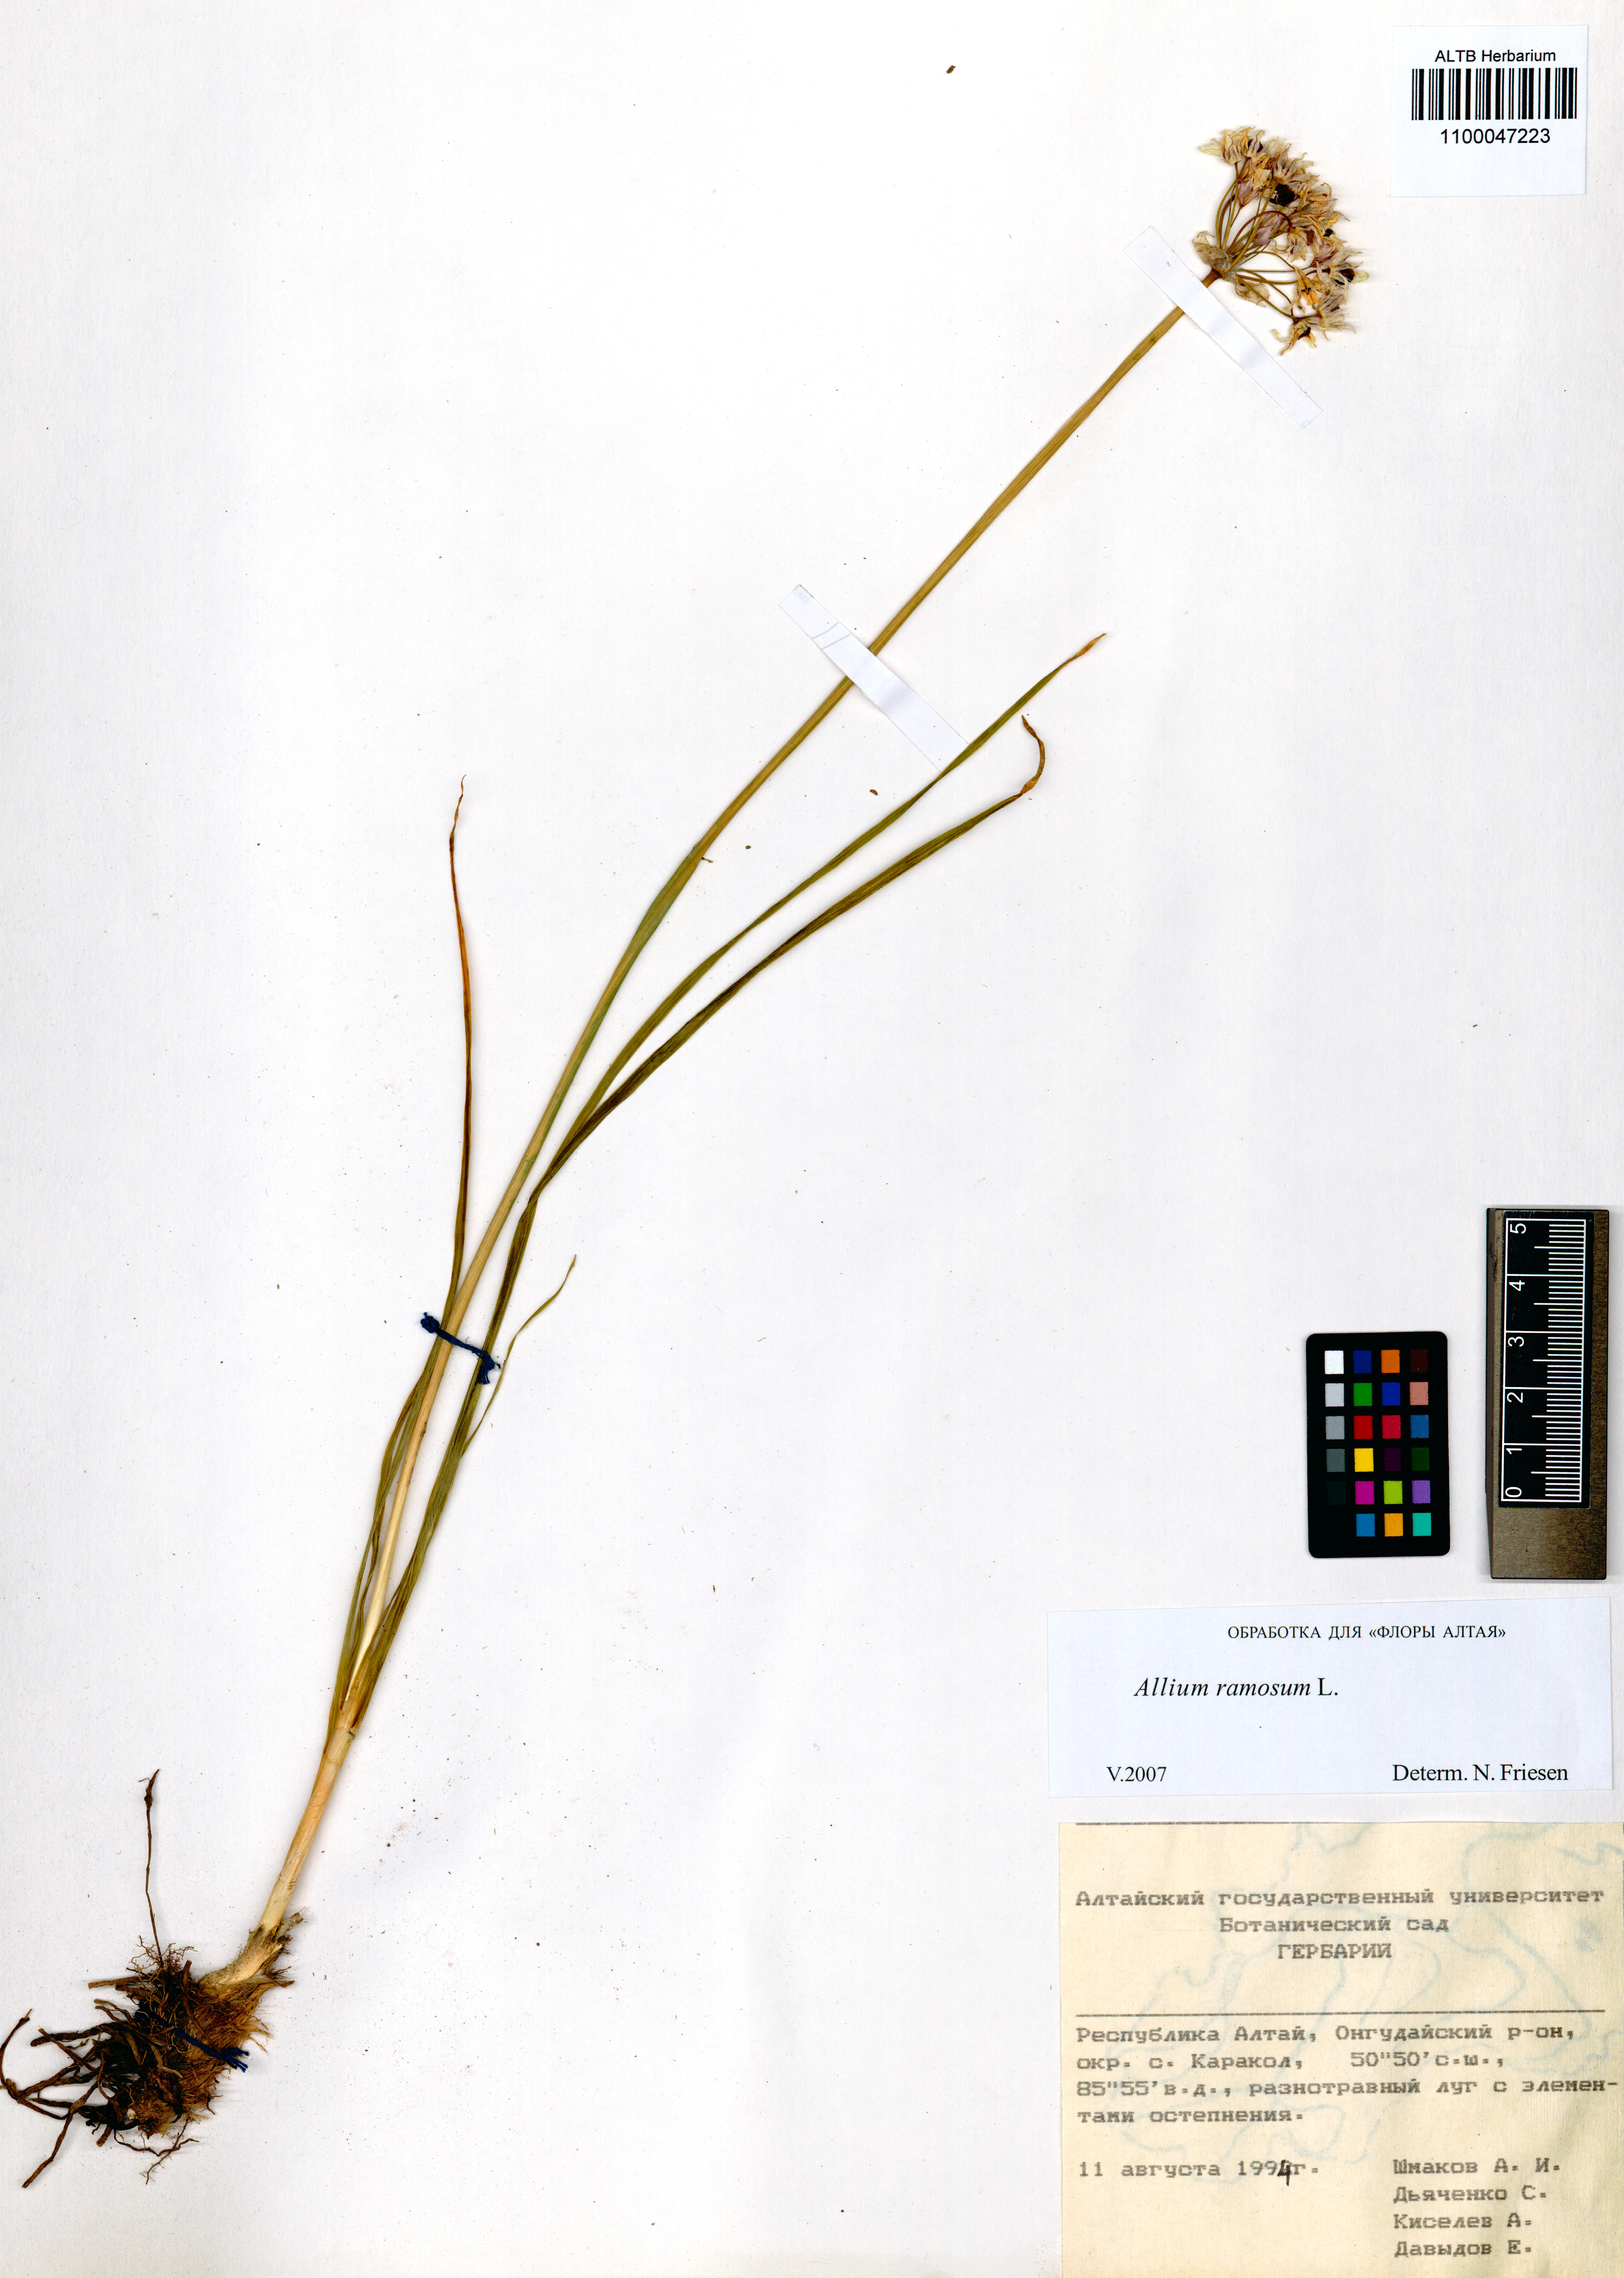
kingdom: Plantae
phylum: Tracheophyta
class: Liliopsida
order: Asparagales
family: Amaryllidaceae
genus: Allium
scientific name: Allium ramosum
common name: Fragrant garlic
